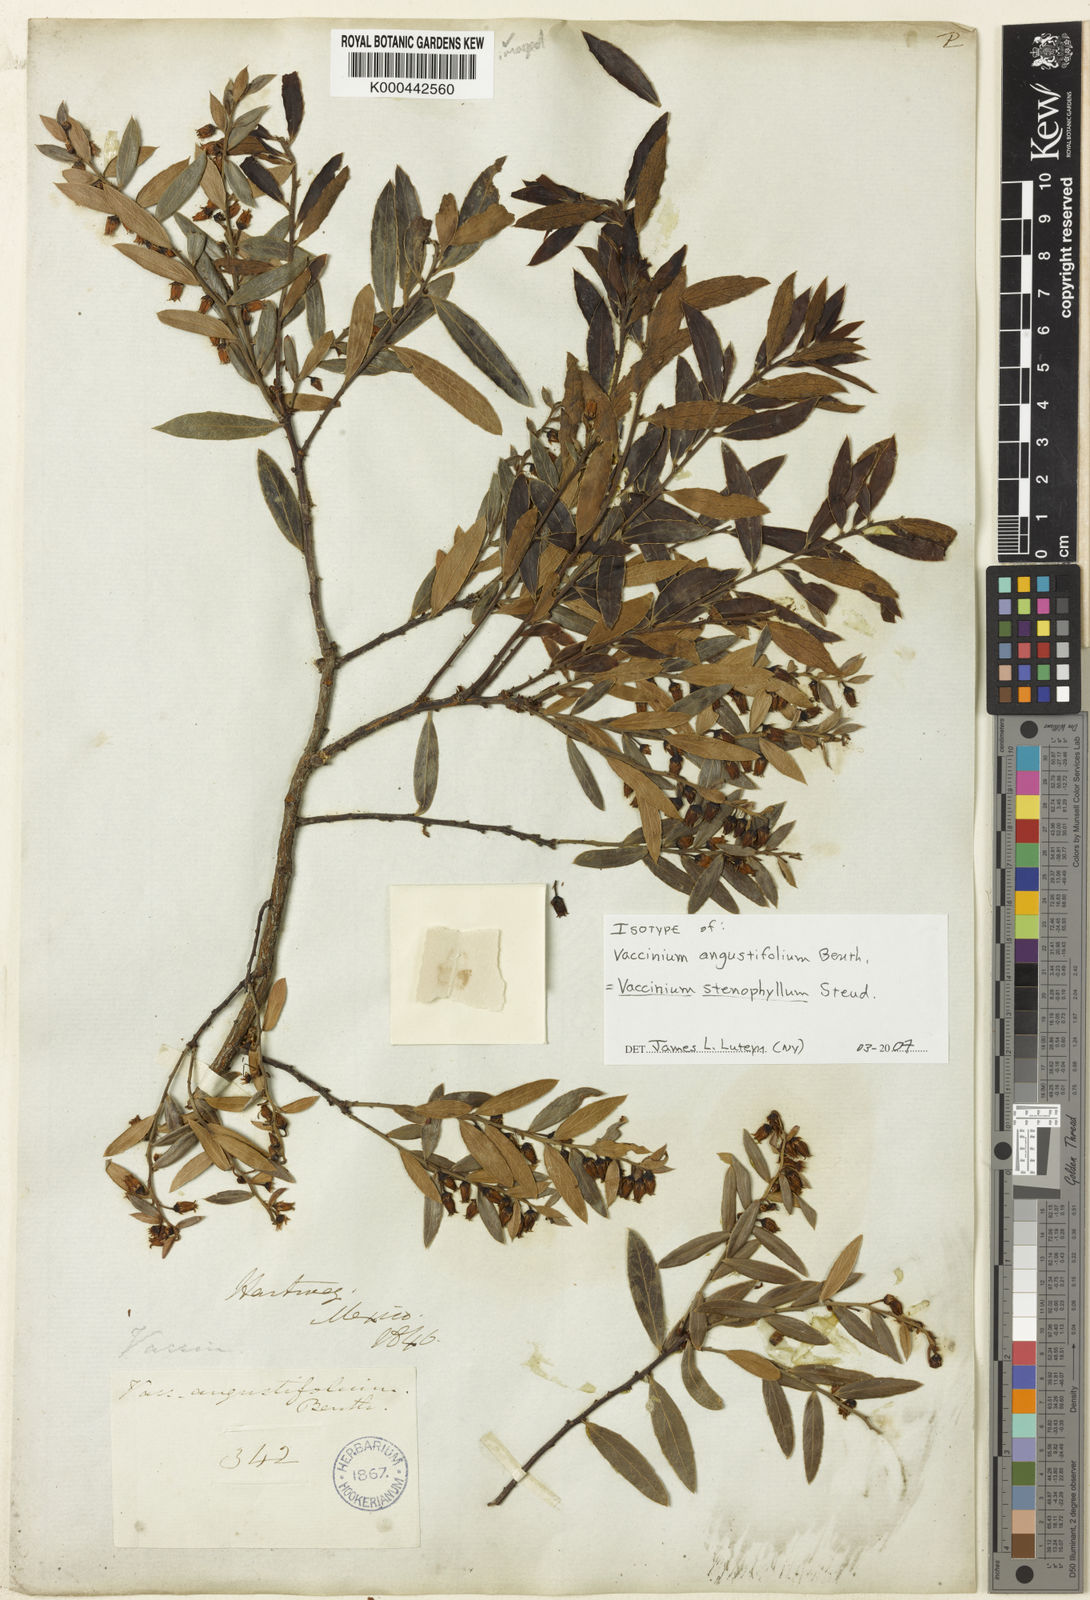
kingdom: Plantae
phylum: Tracheophyta
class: Magnoliopsida
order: Ericales
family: Ericaceae
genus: Vaccinium
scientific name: Vaccinium stenophyllum
